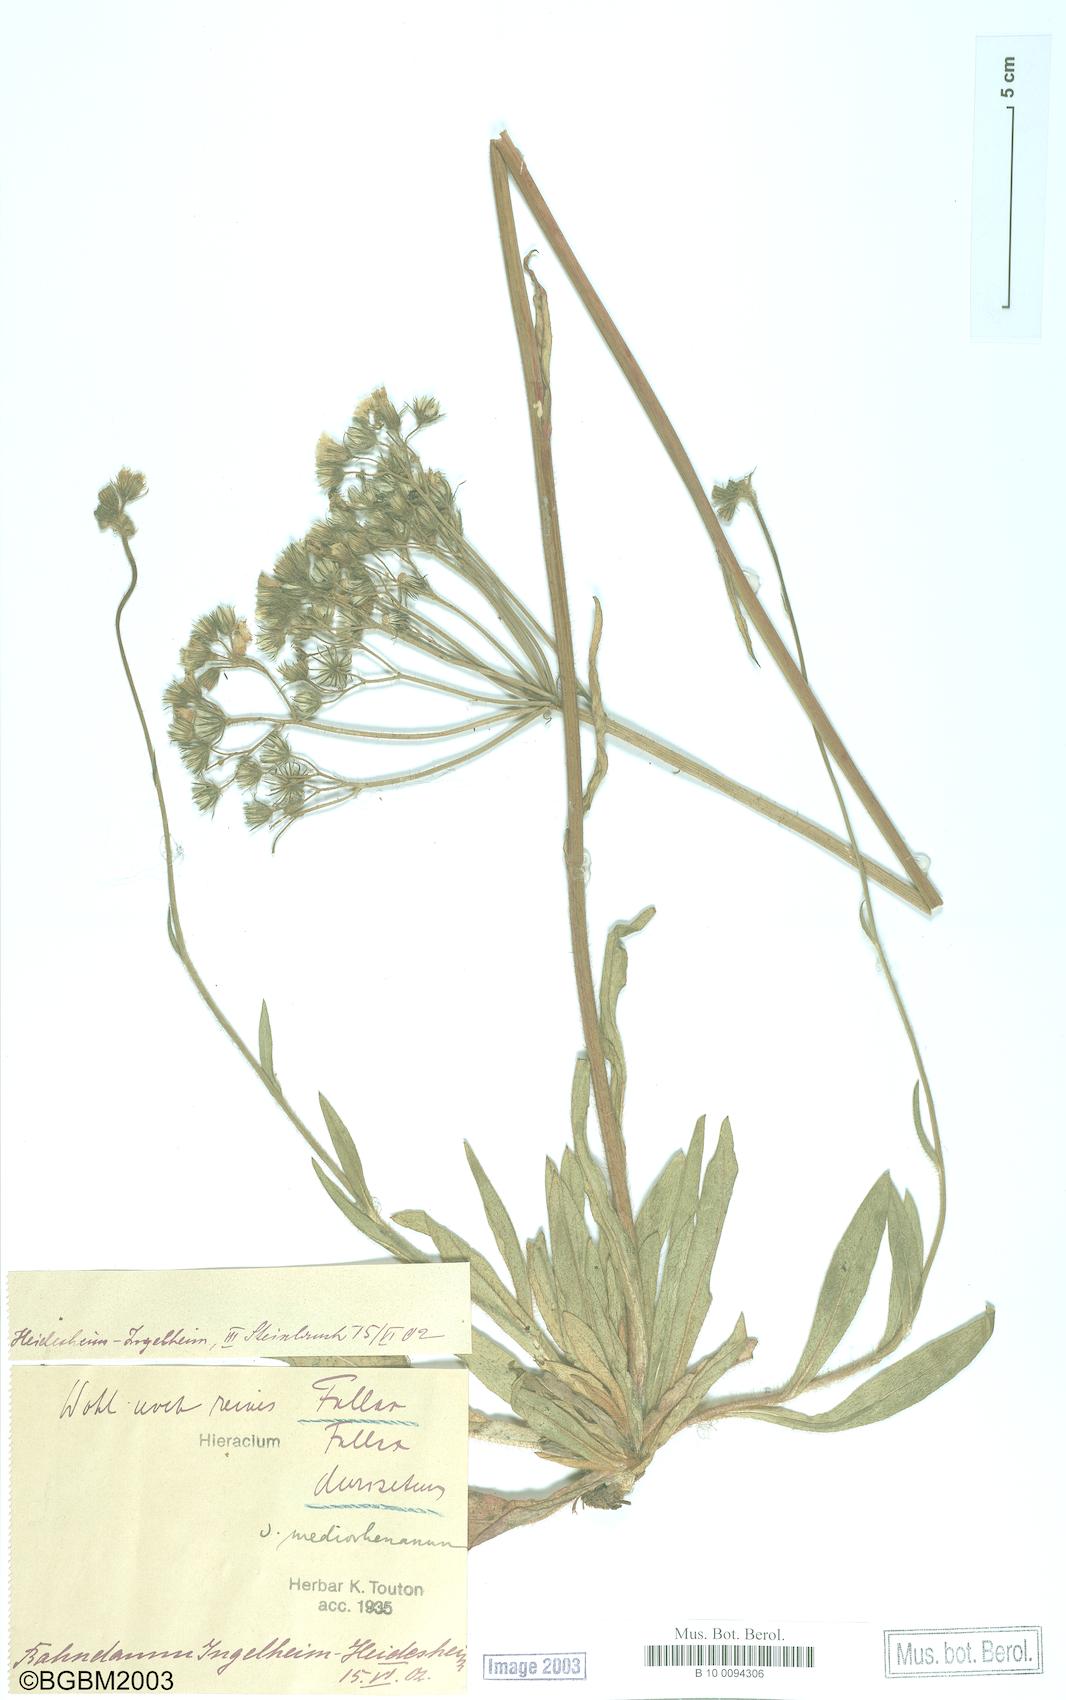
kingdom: Plantae
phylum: Tracheophyta
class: Magnoliopsida
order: Asterales
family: Asteraceae
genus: Hieracium
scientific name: Hieracium fallax
